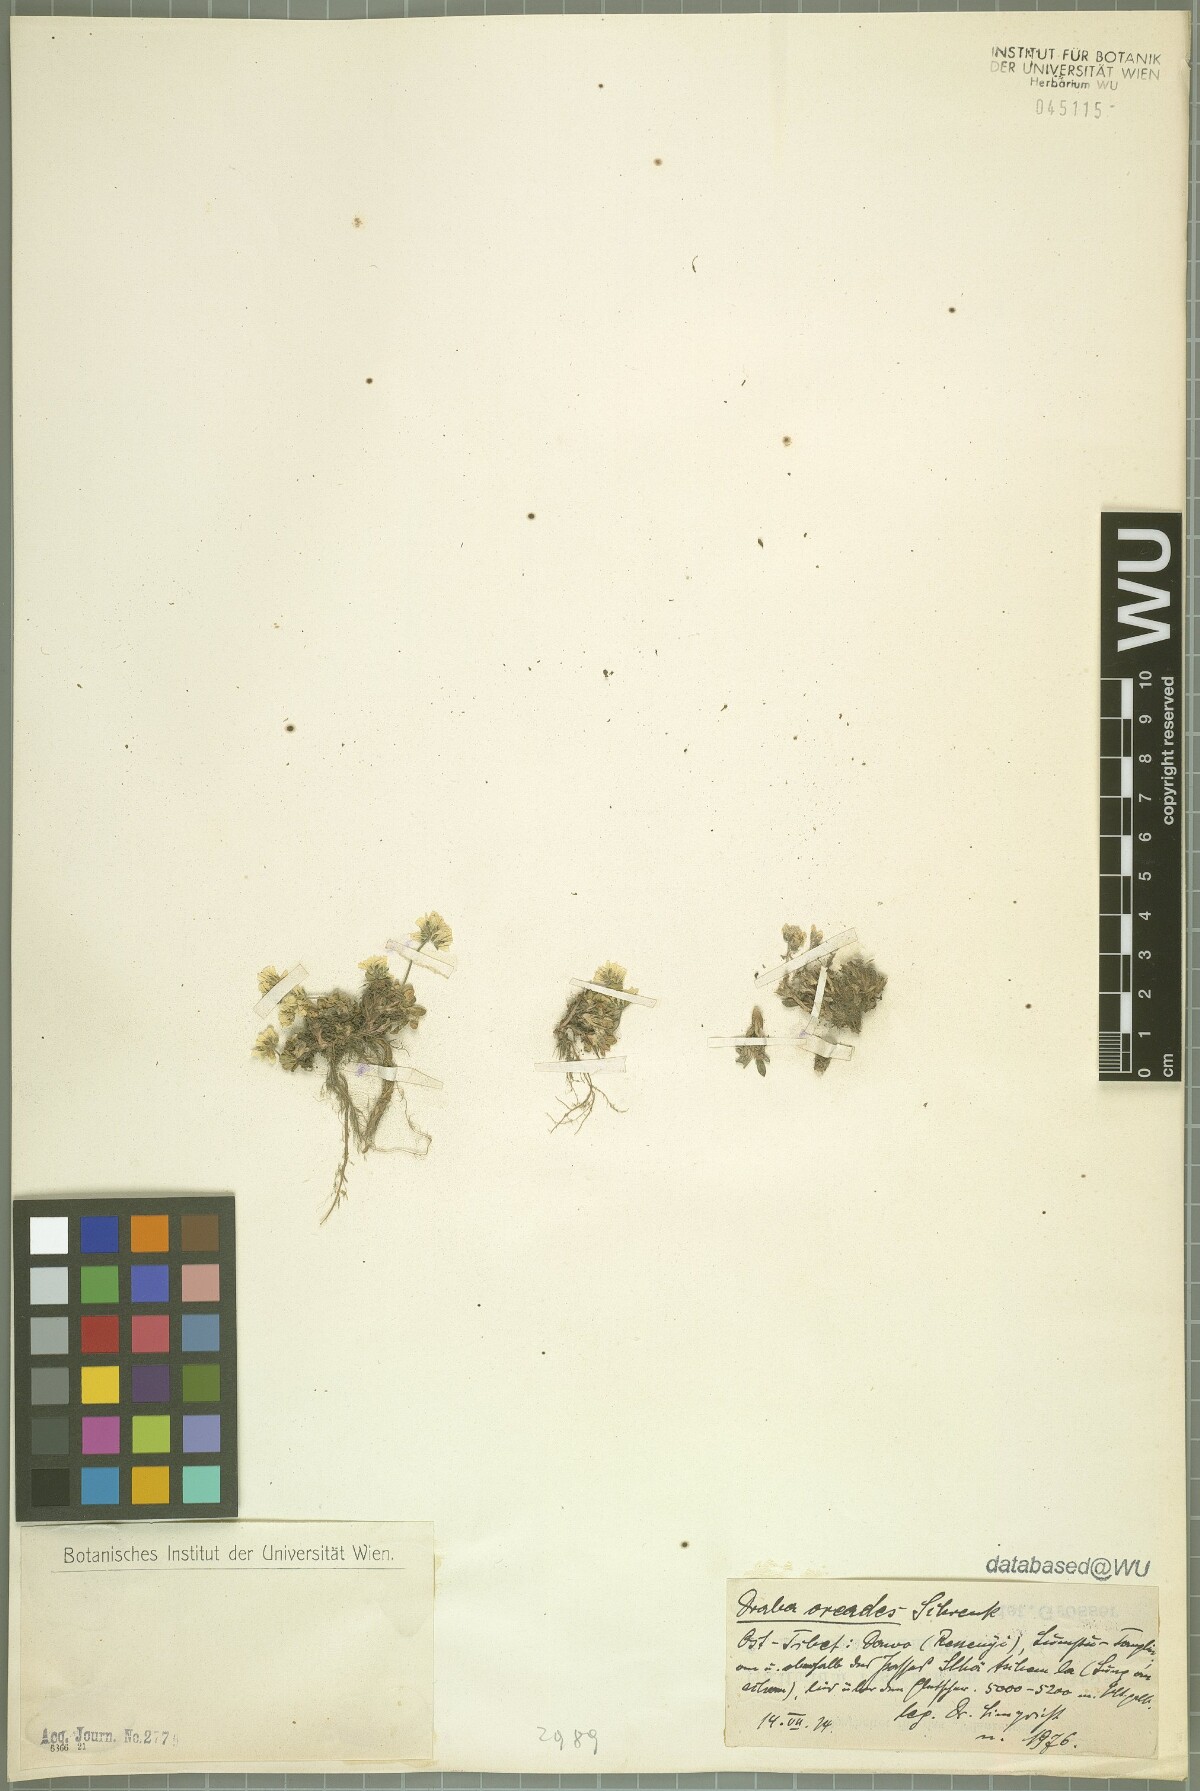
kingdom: Plantae
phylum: Tracheophyta
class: Magnoliopsida
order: Brassicales
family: Brassicaceae
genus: Draba
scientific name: Draba oreades
